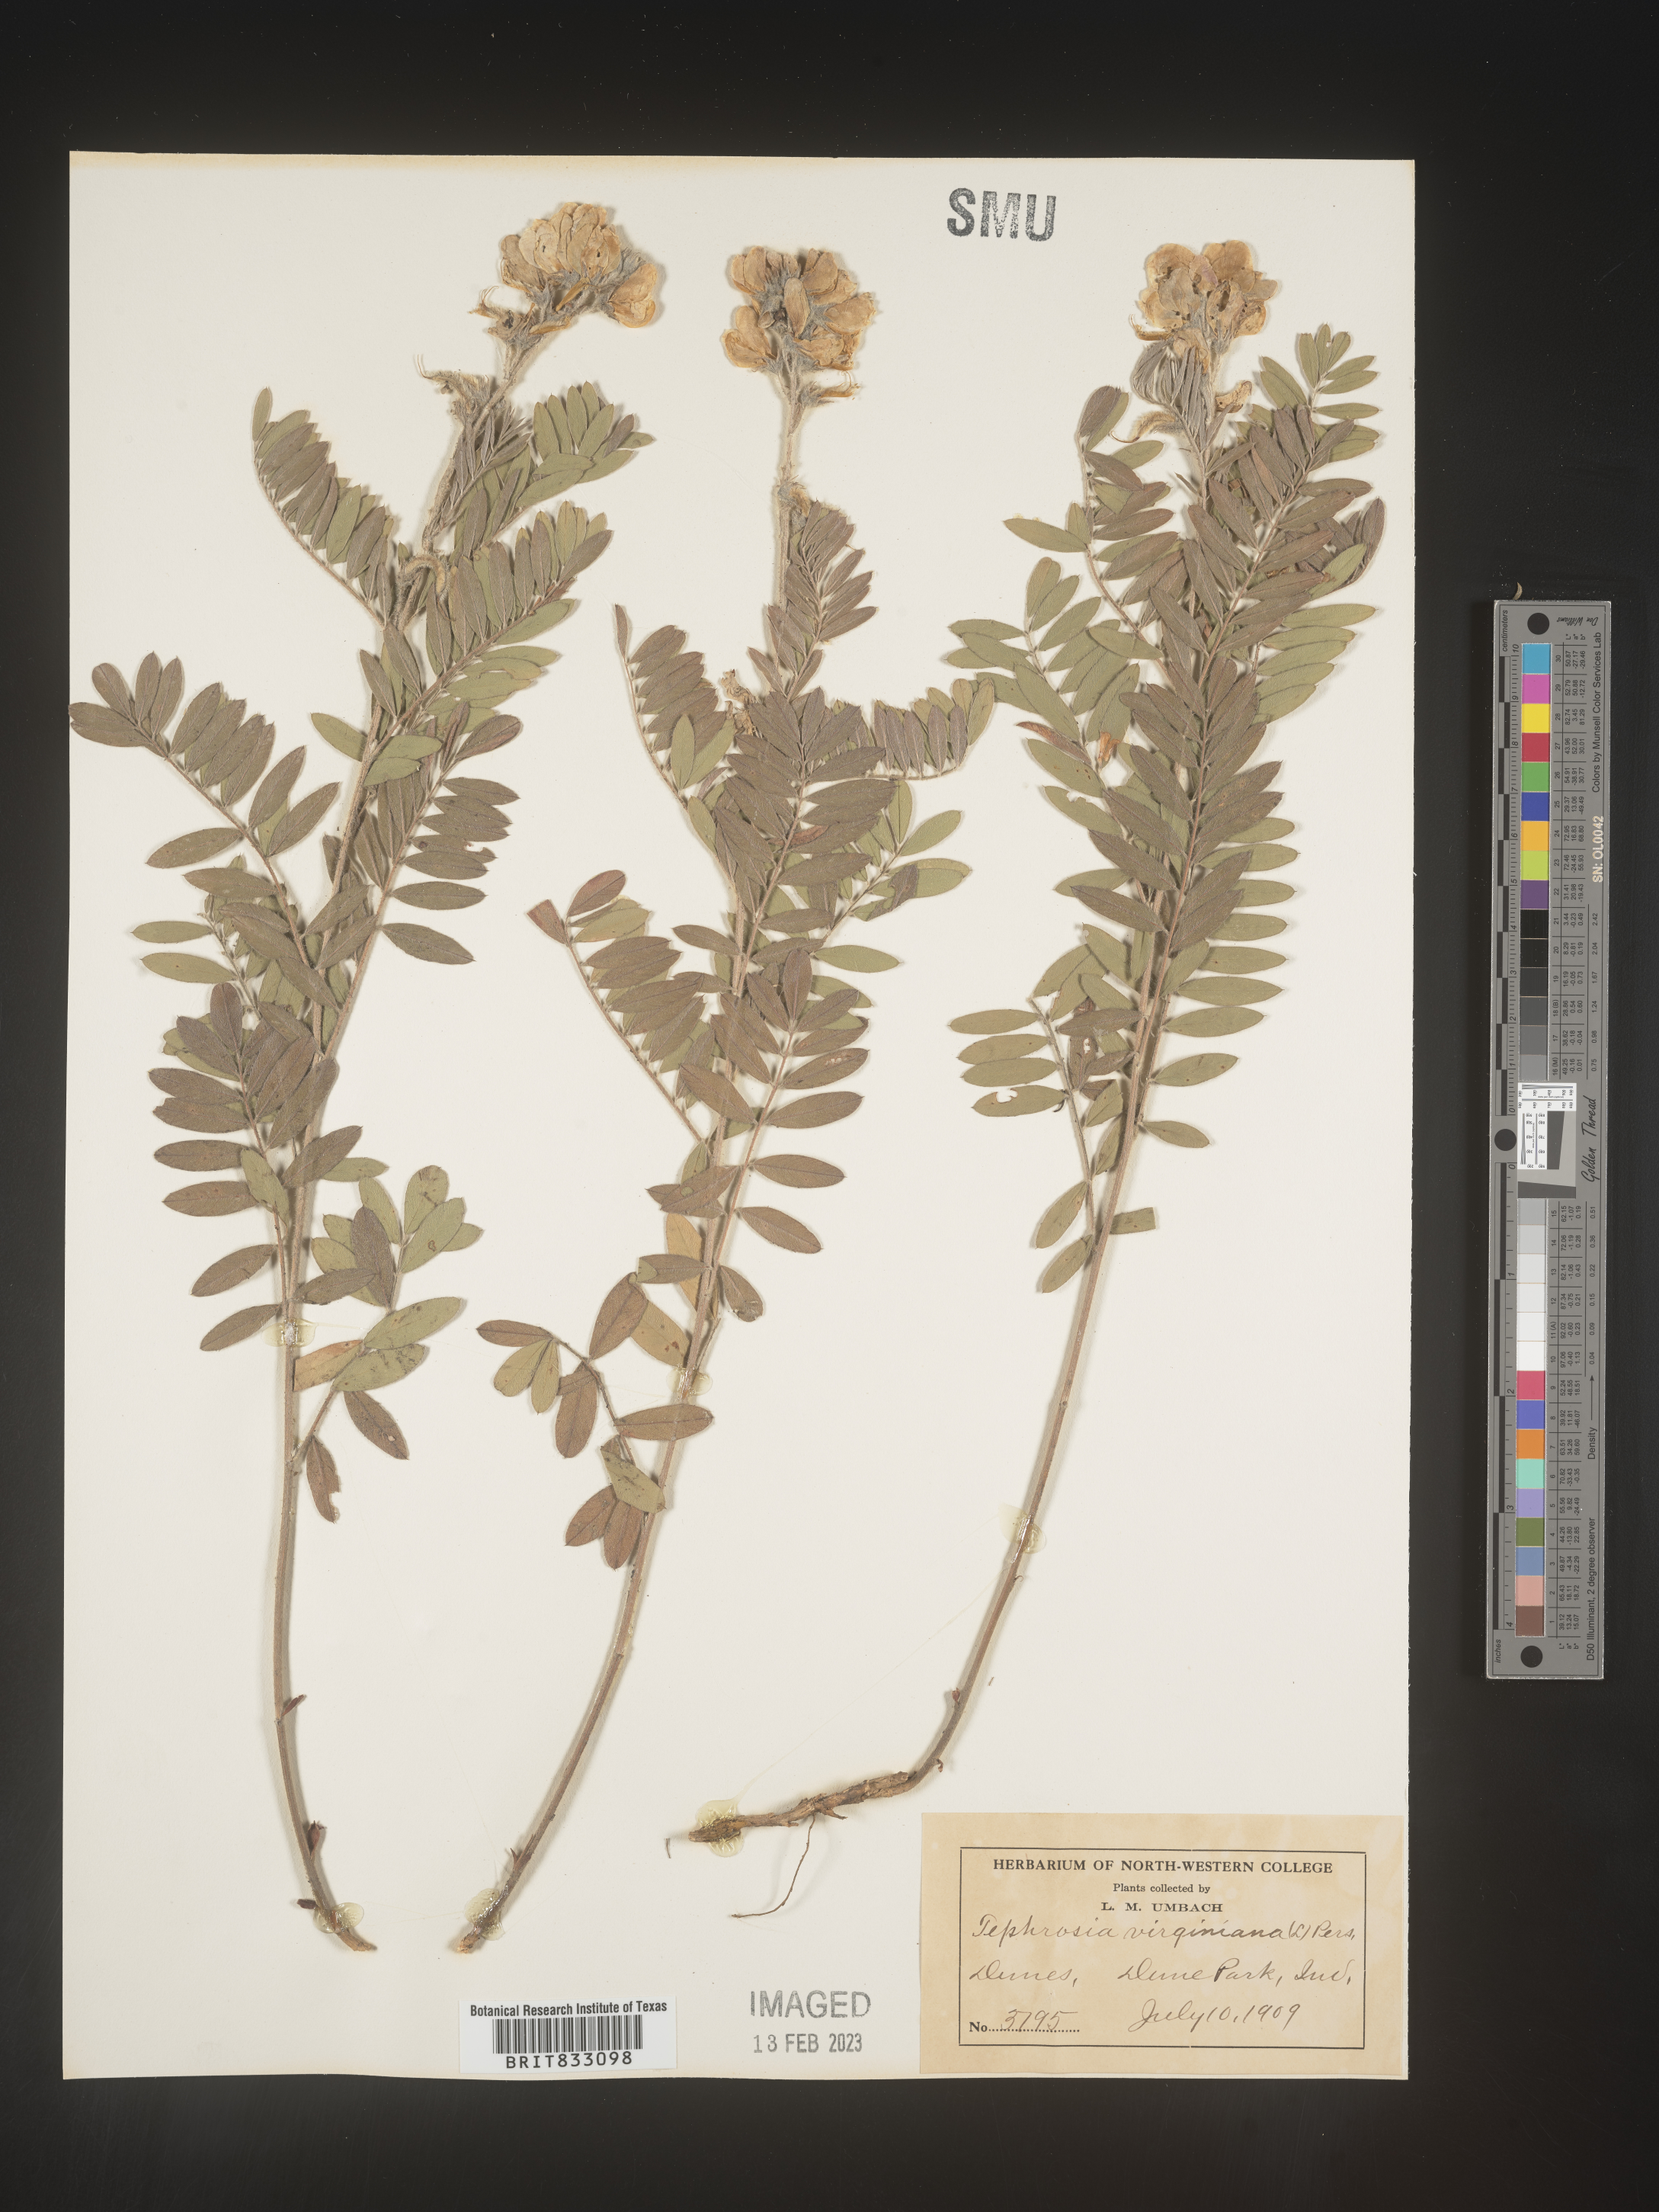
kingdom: Plantae
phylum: Tracheophyta
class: Magnoliopsida
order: Fabales
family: Fabaceae
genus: Tephrosia
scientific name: Tephrosia virginiana
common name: Rabbit-pea
